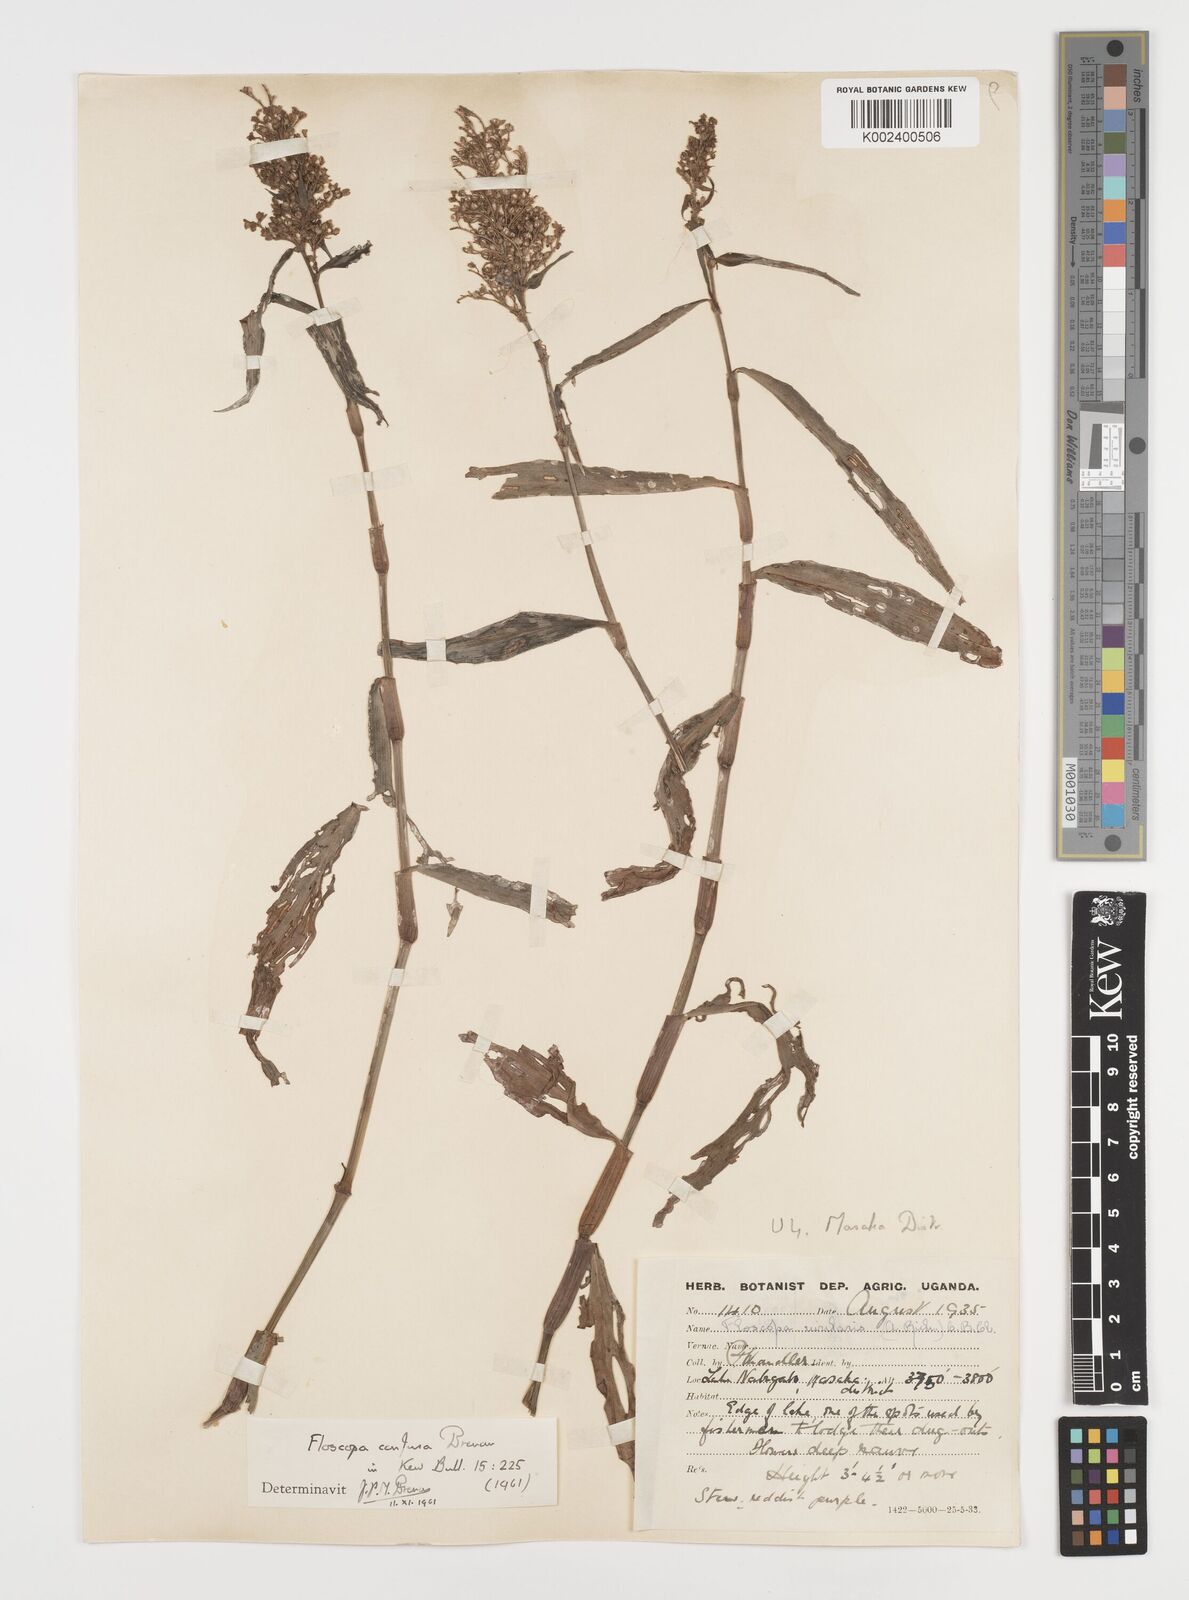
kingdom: Plantae
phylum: Tracheophyta
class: Liliopsida
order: Commelinales
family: Commelinaceae
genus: Floscopa
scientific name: Floscopa confusa
